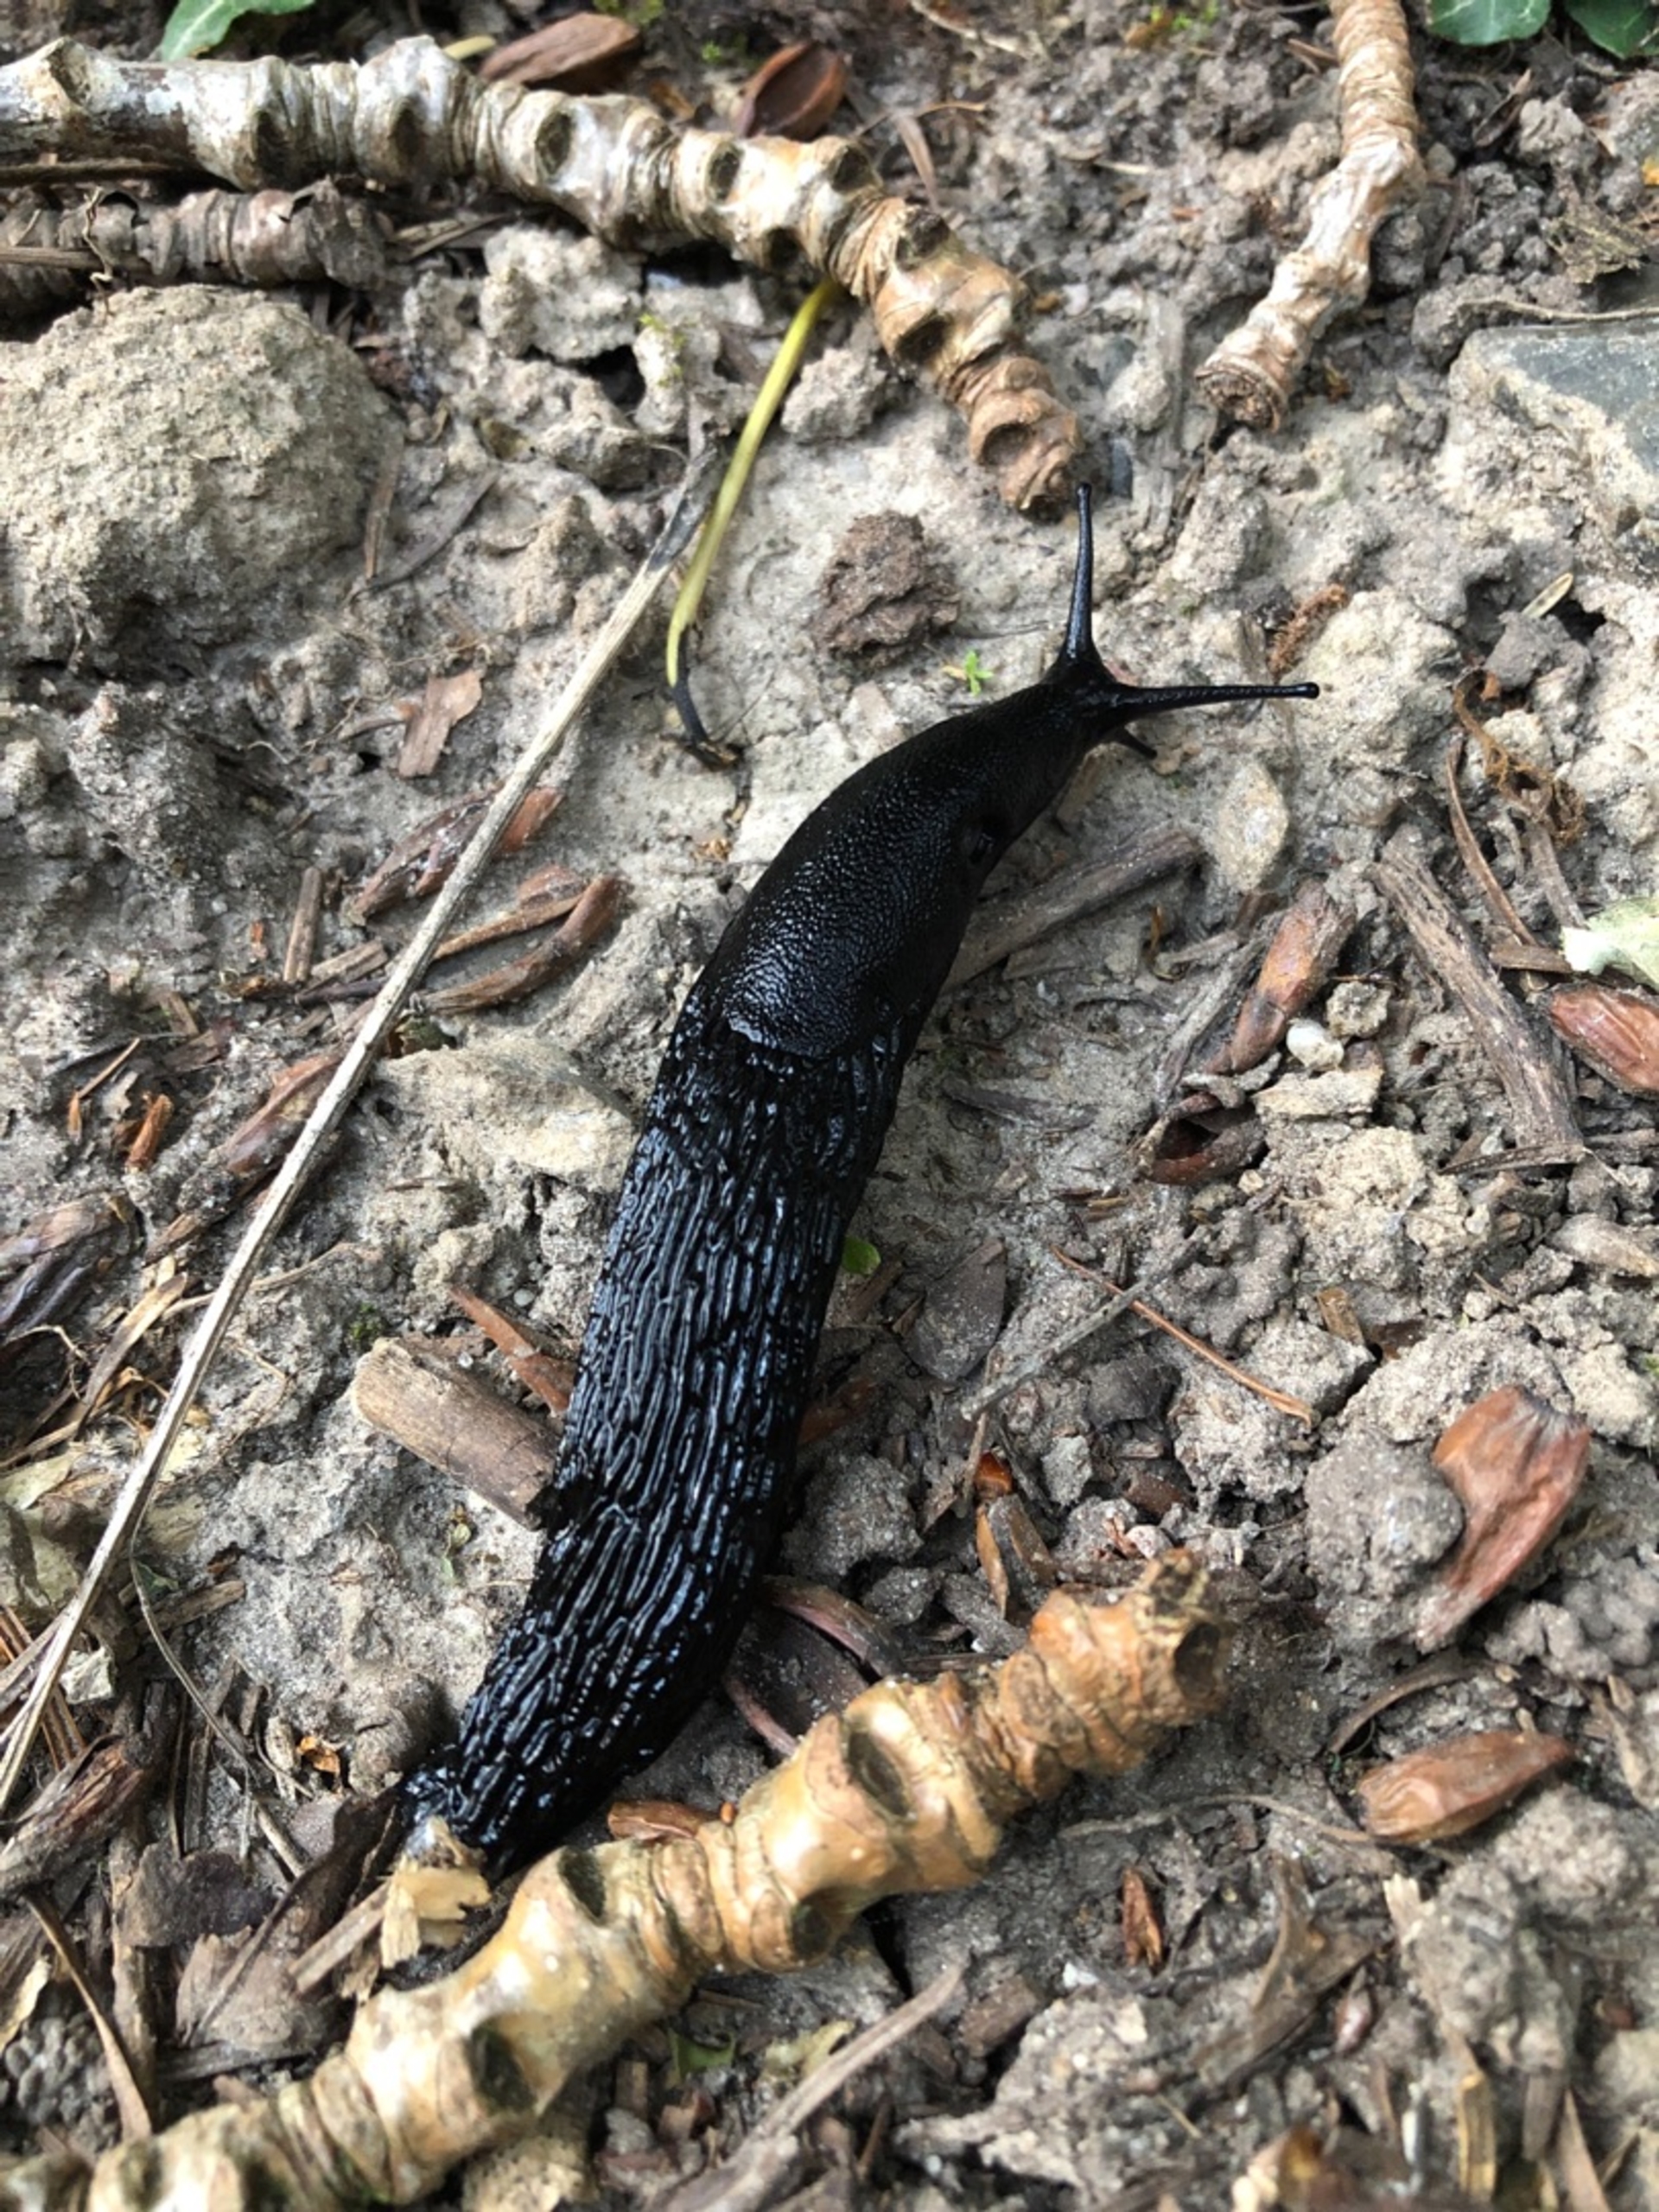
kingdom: Animalia
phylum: Mollusca
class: Gastropoda
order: Stylommatophora
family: Arionidae
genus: Arion
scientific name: Arion ater
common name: Sort skovsnegl
